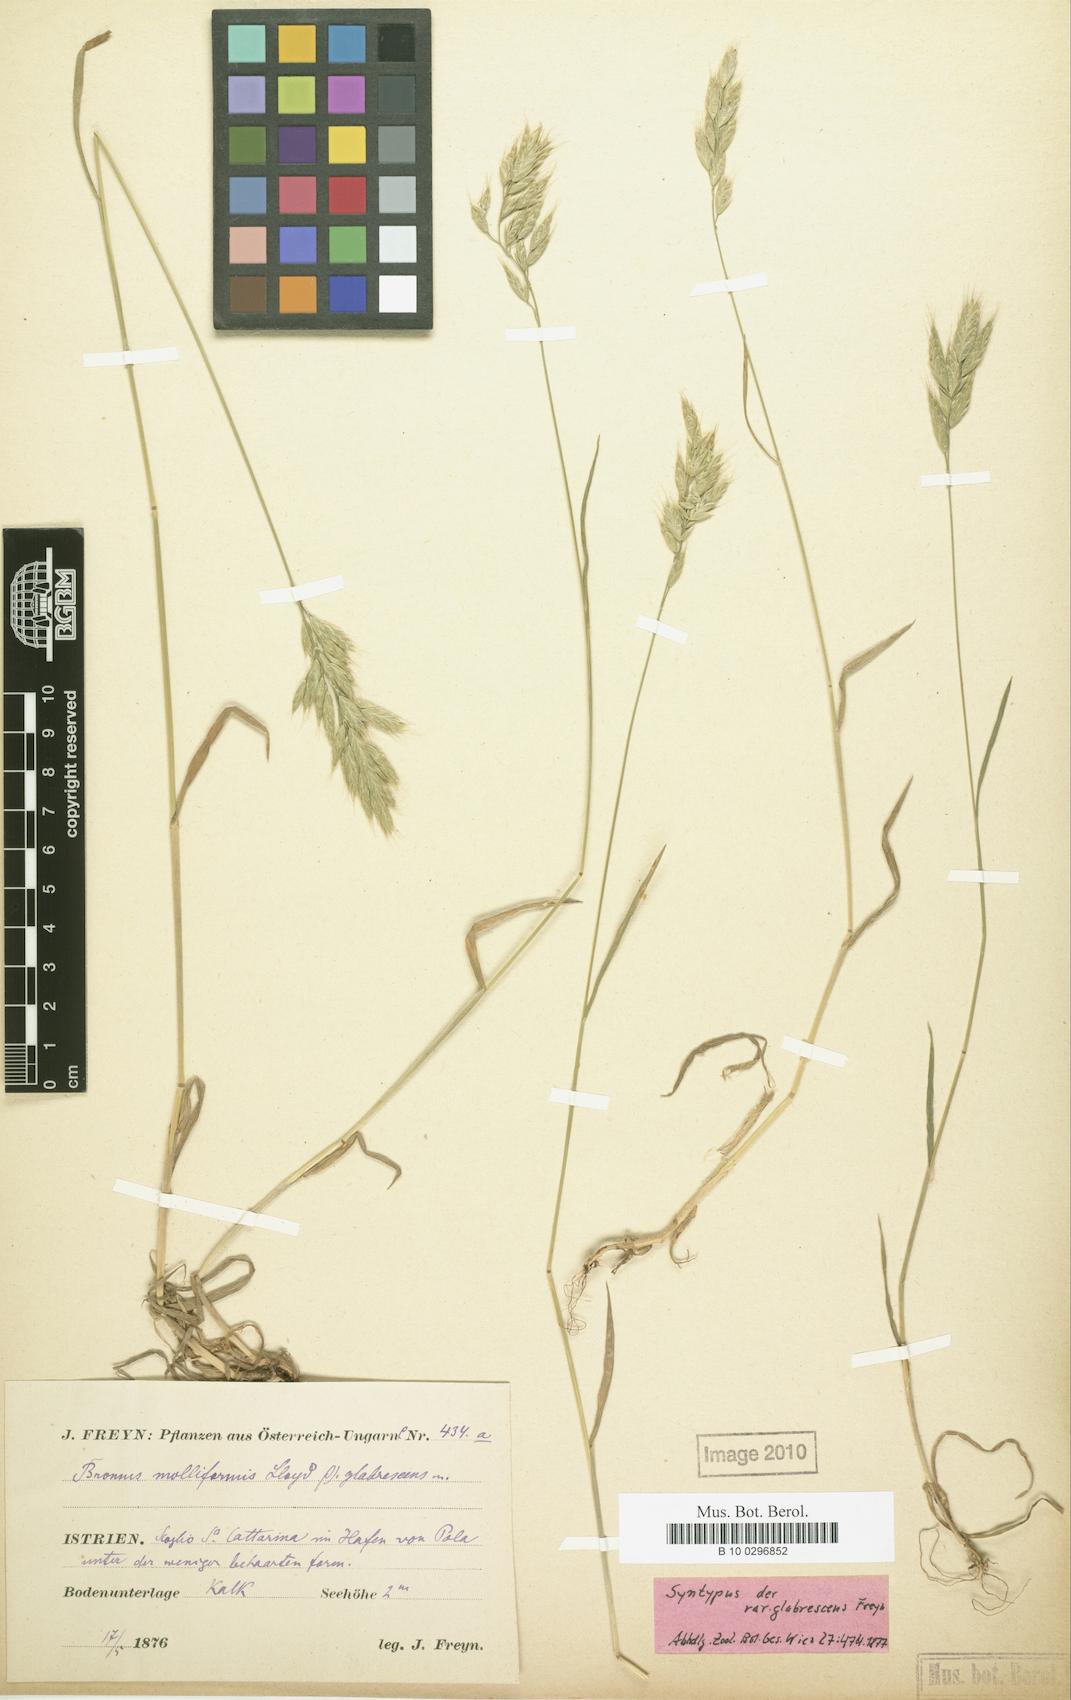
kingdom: Plantae
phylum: Tracheophyta
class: Liliopsida
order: Poales
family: Poaceae
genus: Bromus
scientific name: Bromus hordeaceus
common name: Soft brome
